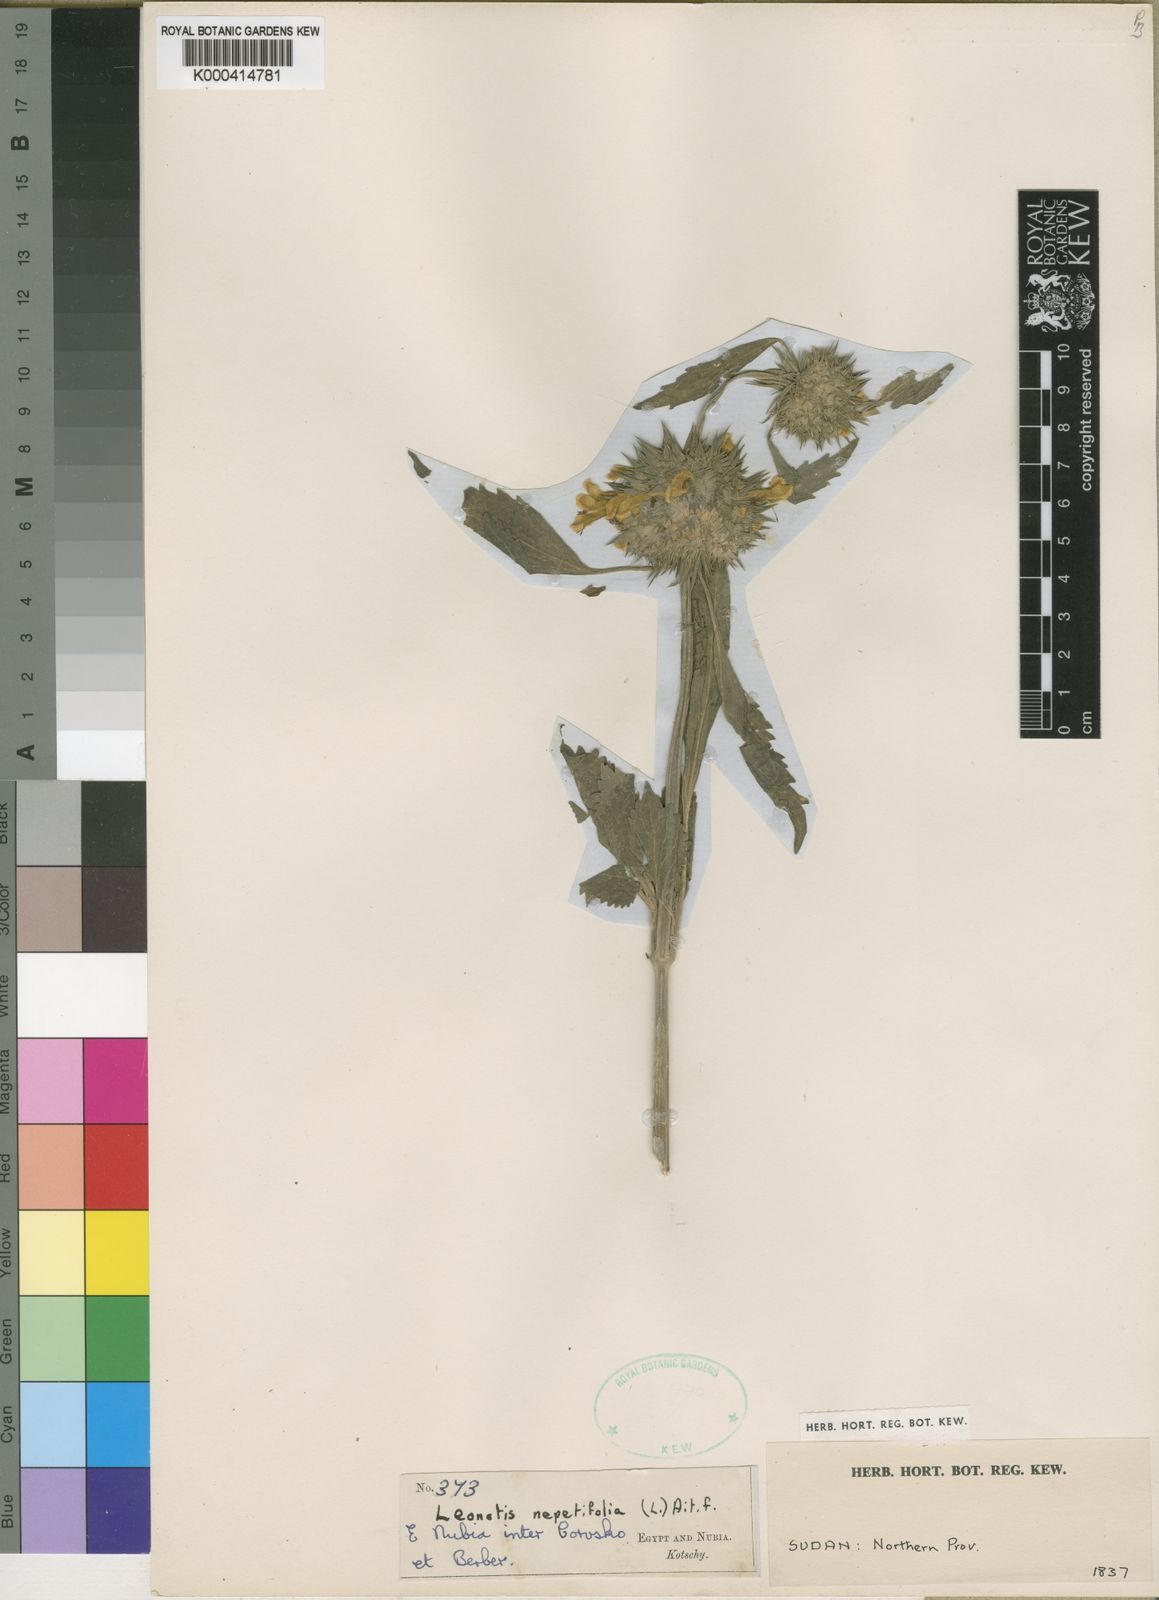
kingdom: Plantae
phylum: Tracheophyta
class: Magnoliopsida
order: Lamiales
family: Lamiaceae
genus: Leonotis
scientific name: Leonotis nepetifolia
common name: Christmas candlestick
